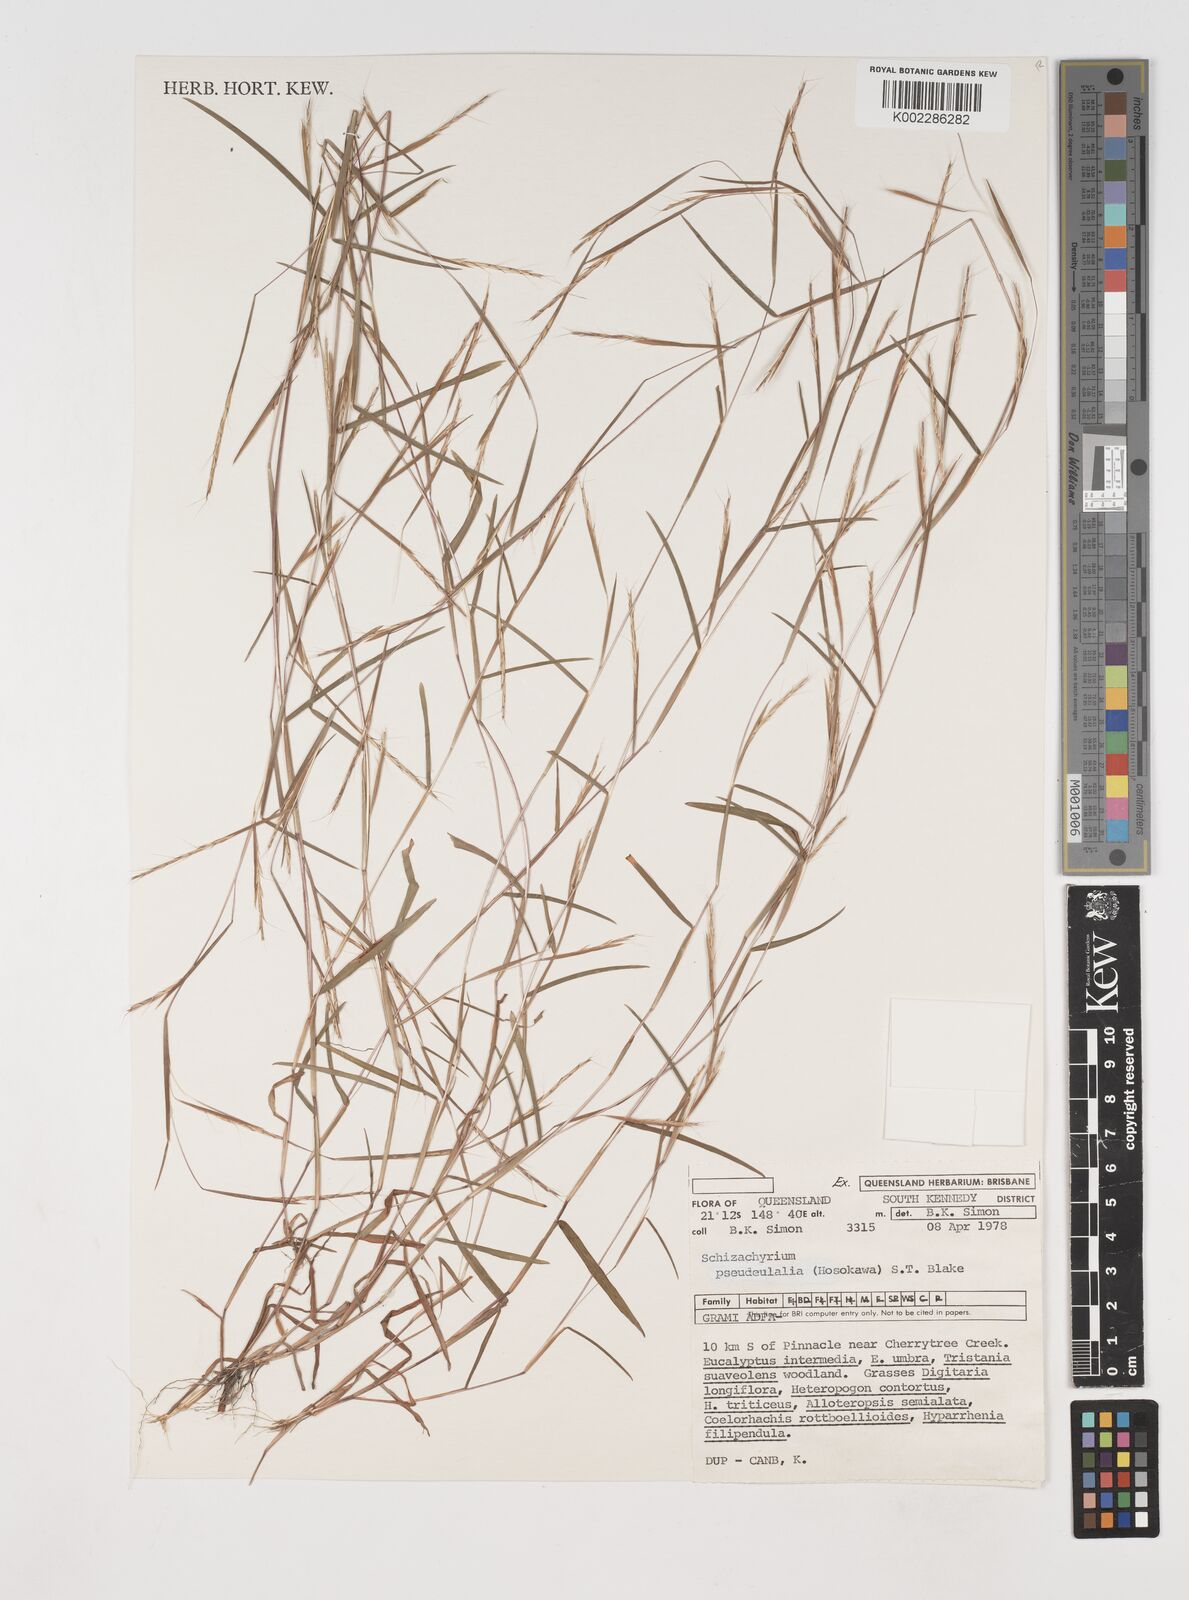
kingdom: Plantae
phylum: Tracheophyta
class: Liliopsida
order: Poales
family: Poaceae
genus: Schizachyrium
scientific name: Schizachyrium pseudeulalia
